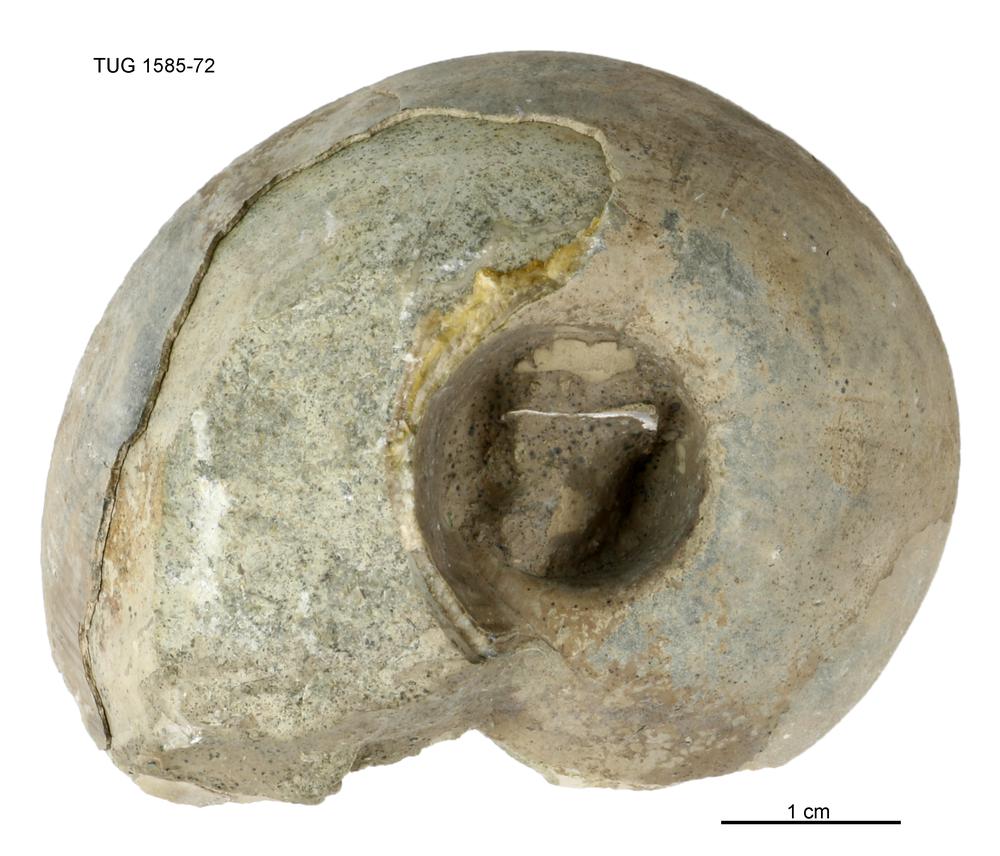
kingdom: Animalia
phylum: Mollusca
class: Gastropoda
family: Lesueurillidae
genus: Pararaphistoma
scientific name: Pararaphistoma Helicites qualteriata
